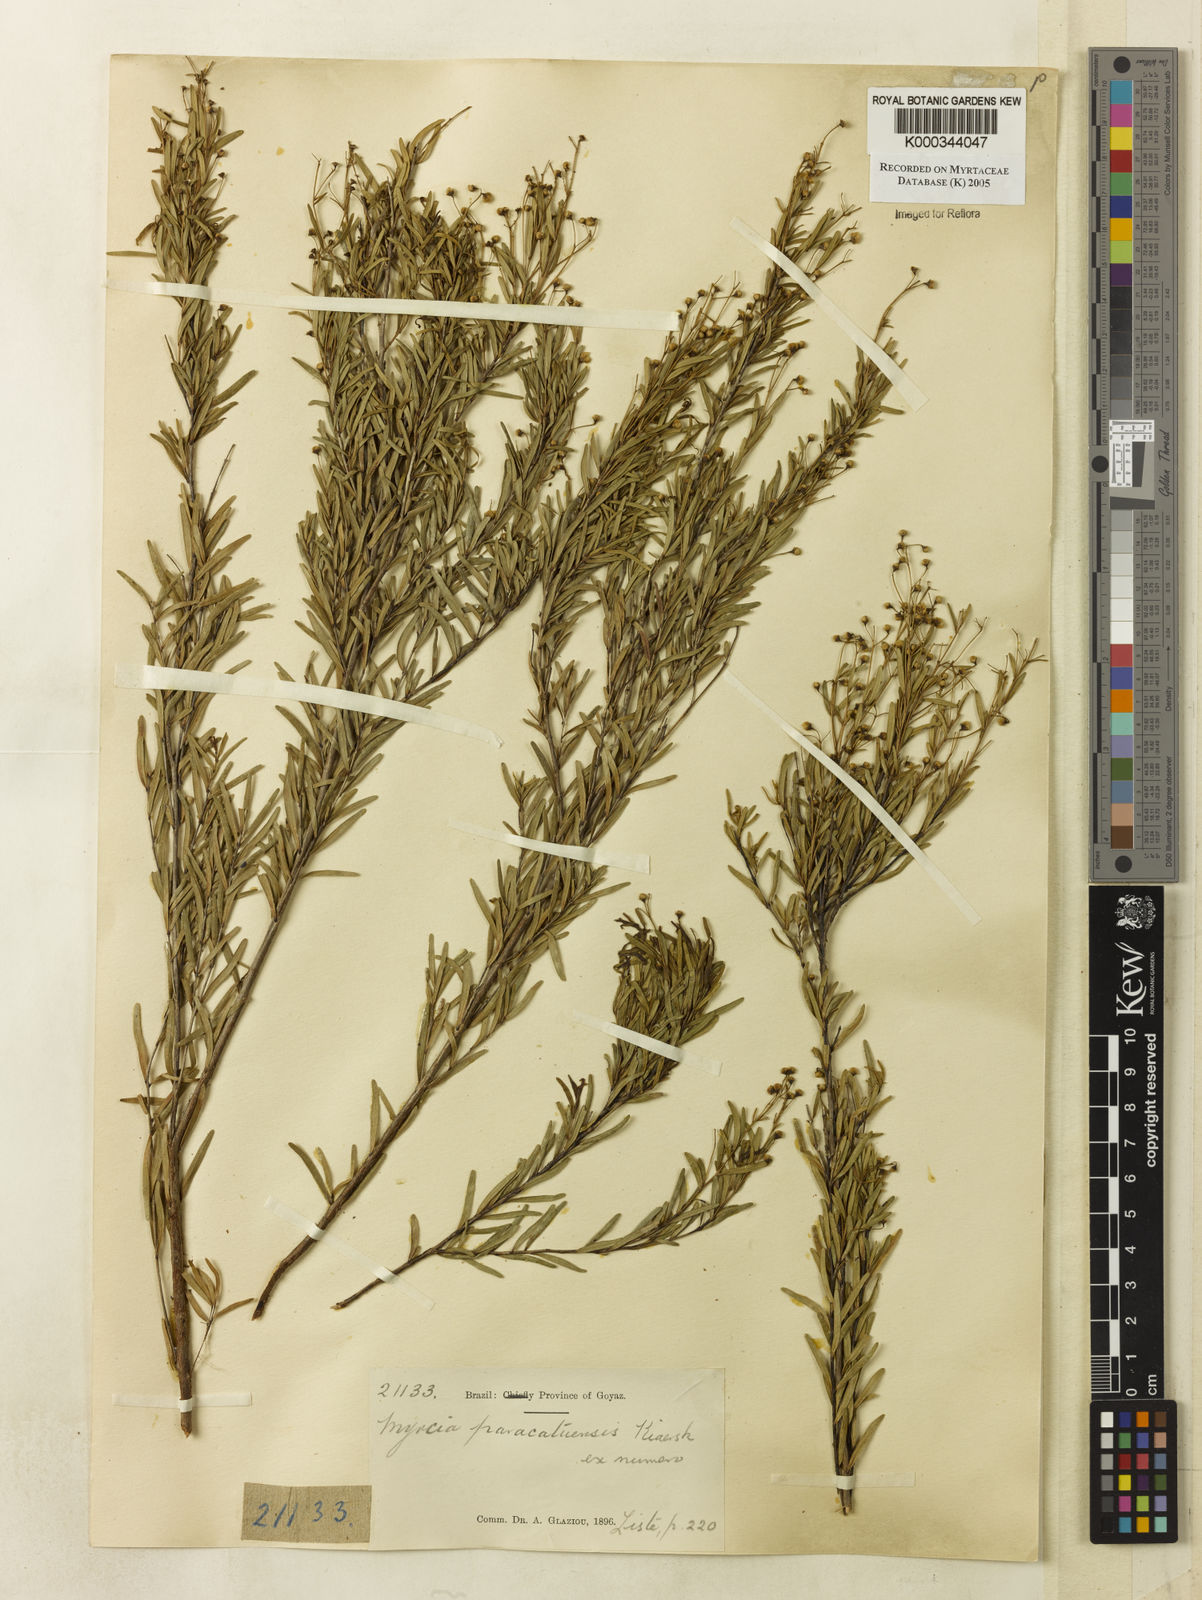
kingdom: Plantae
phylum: Tracheophyta
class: Magnoliopsida
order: Myrtales
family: Myrtaceae
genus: Myrcia
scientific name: Myrcia paracatuensis
